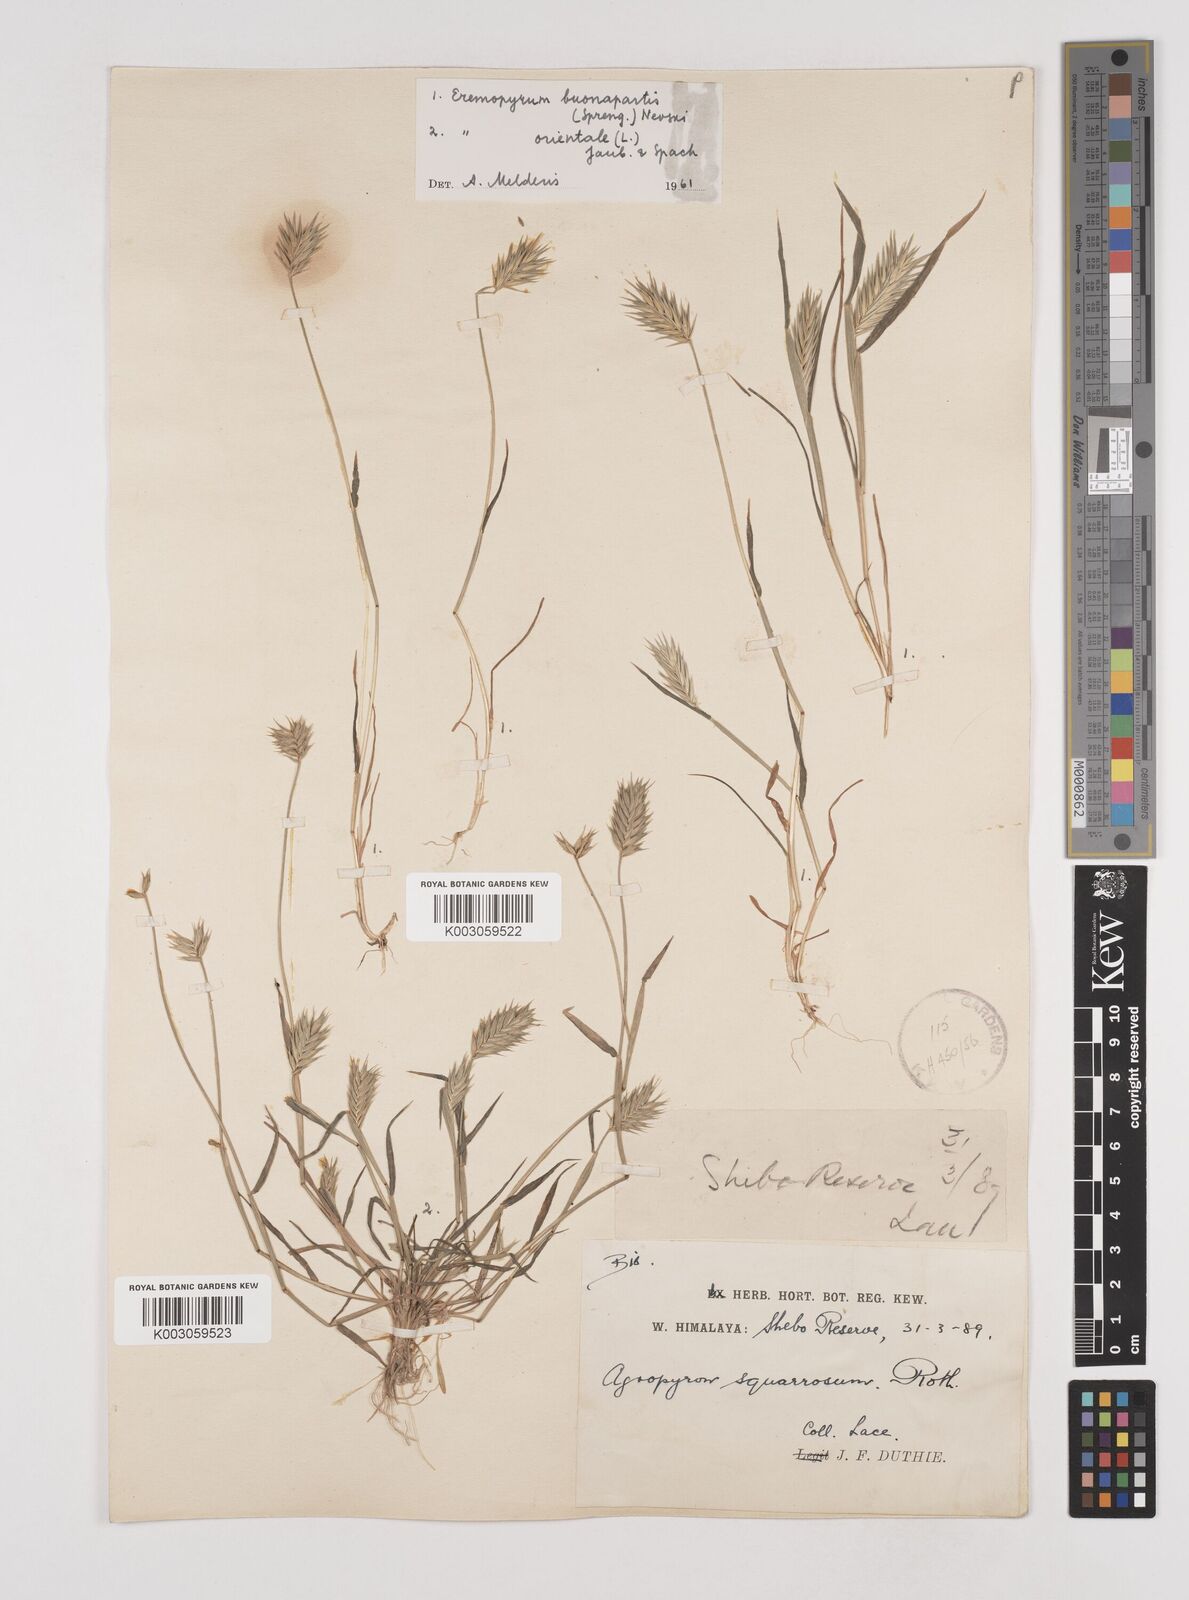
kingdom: Plantae
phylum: Tracheophyta
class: Liliopsida
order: Poales
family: Poaceae
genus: Eremopyrum
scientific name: Eremopyrum bonaepartis
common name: Tapertip false wheatgrass
